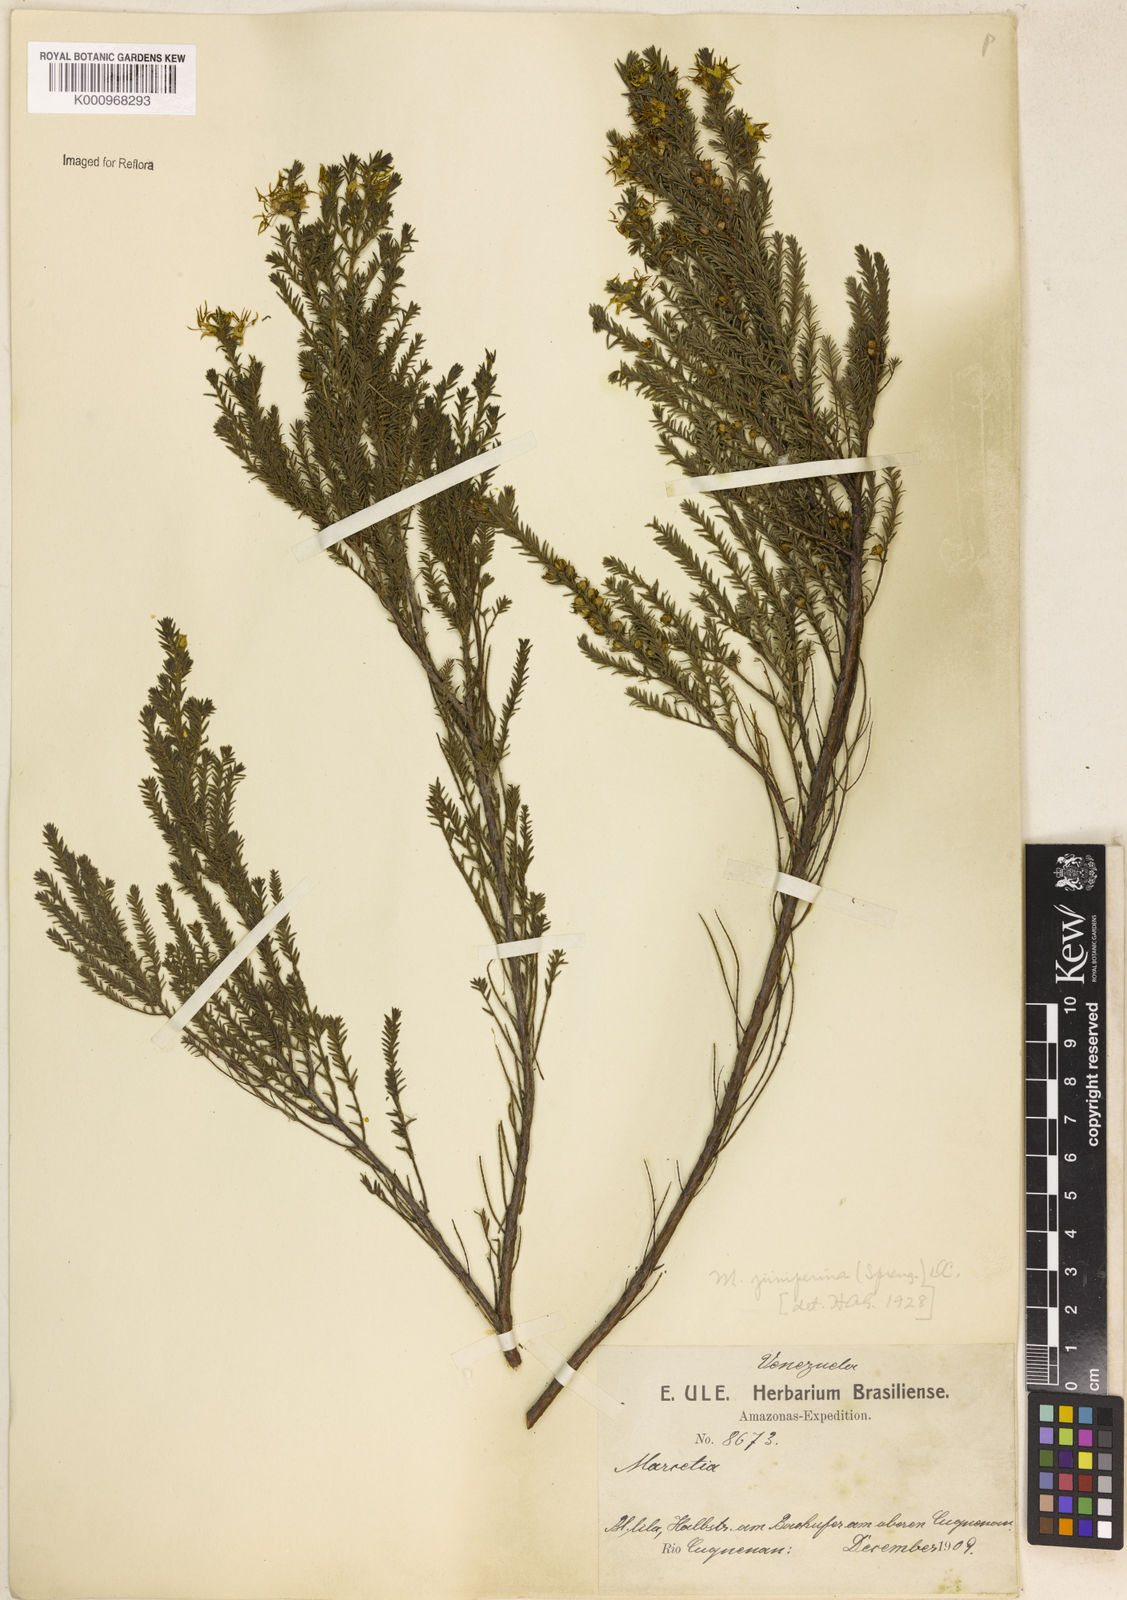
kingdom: Plantae
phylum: Tracheophyta
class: Magnoliopsida
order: Myrtales
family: Melastomataceae
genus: Marcetia
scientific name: Marcetia taxifolia
